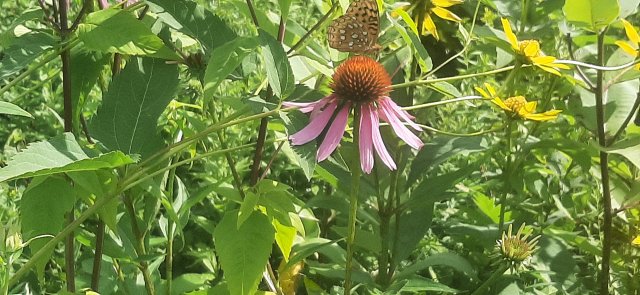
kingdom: Animalia
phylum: Arthropoda
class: Insecta
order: Lepidoptera
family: Nymphalidae
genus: Speyeria
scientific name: Speyeria
